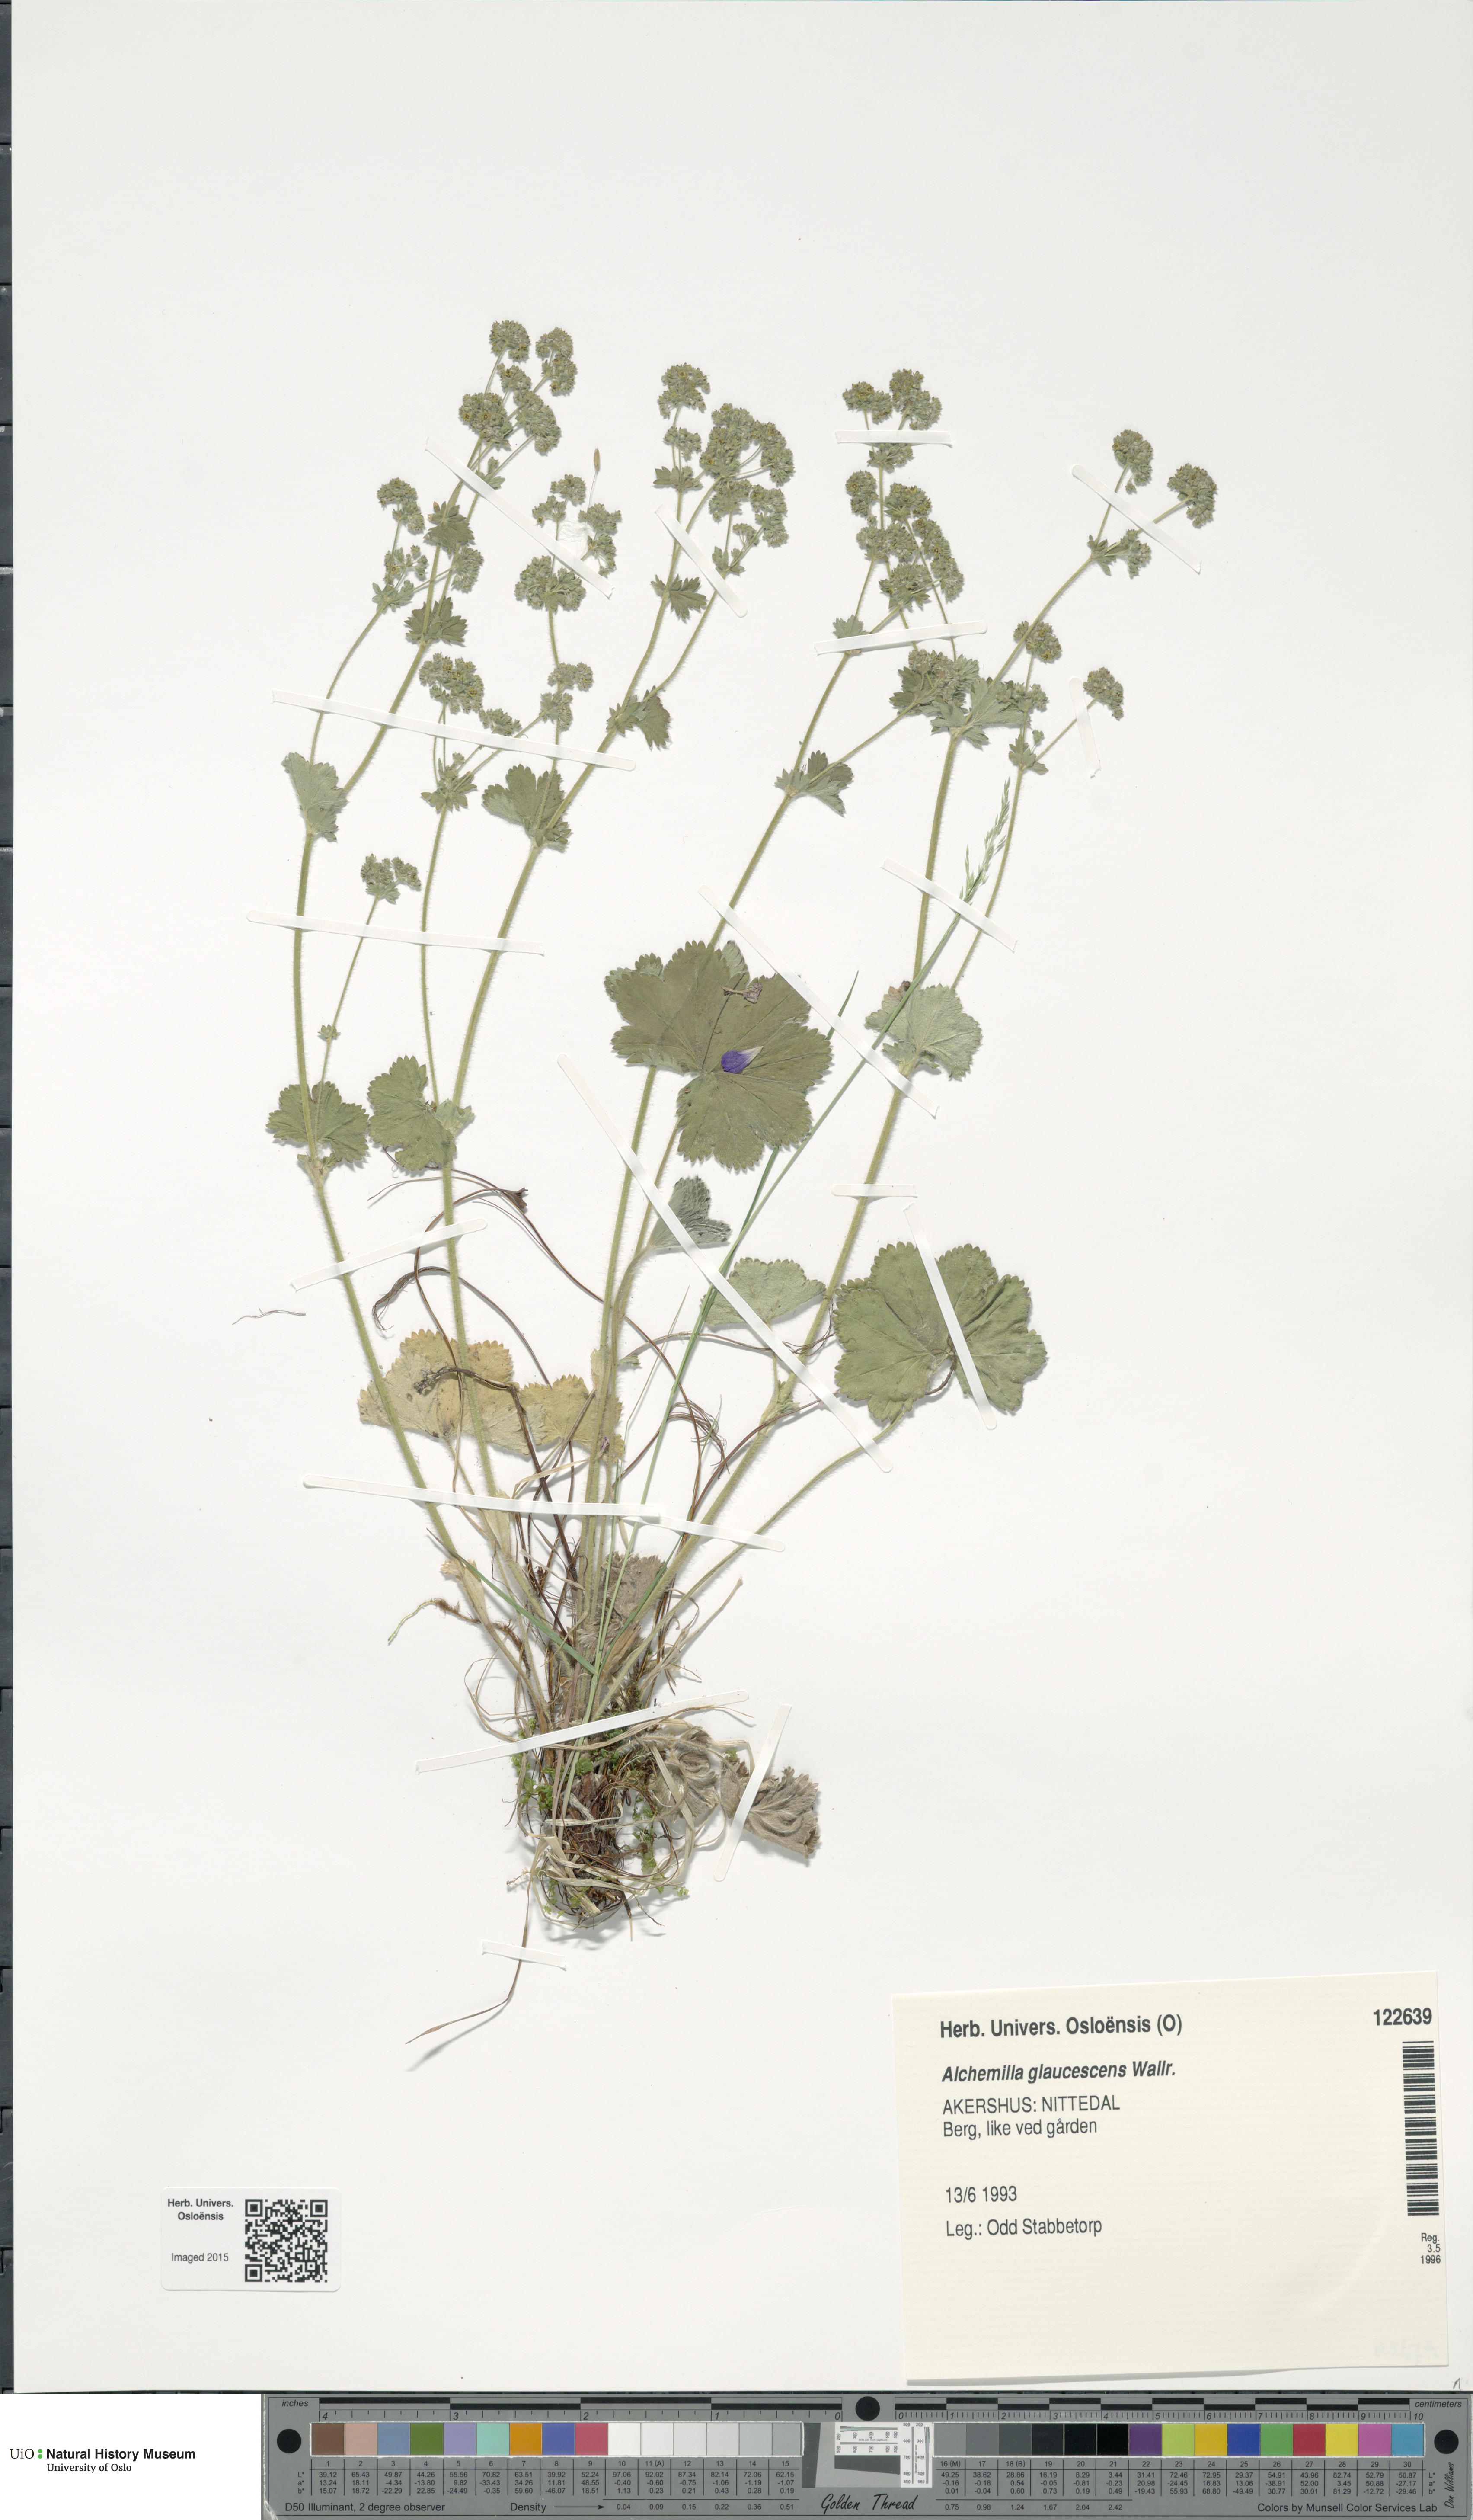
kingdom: Plantae
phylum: Tracheophyta
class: Magnoliopsida
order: Rosales
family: Rosaceae
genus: Alchemilla
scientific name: Alchemilla glaucescens
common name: Silky lady's mantle
